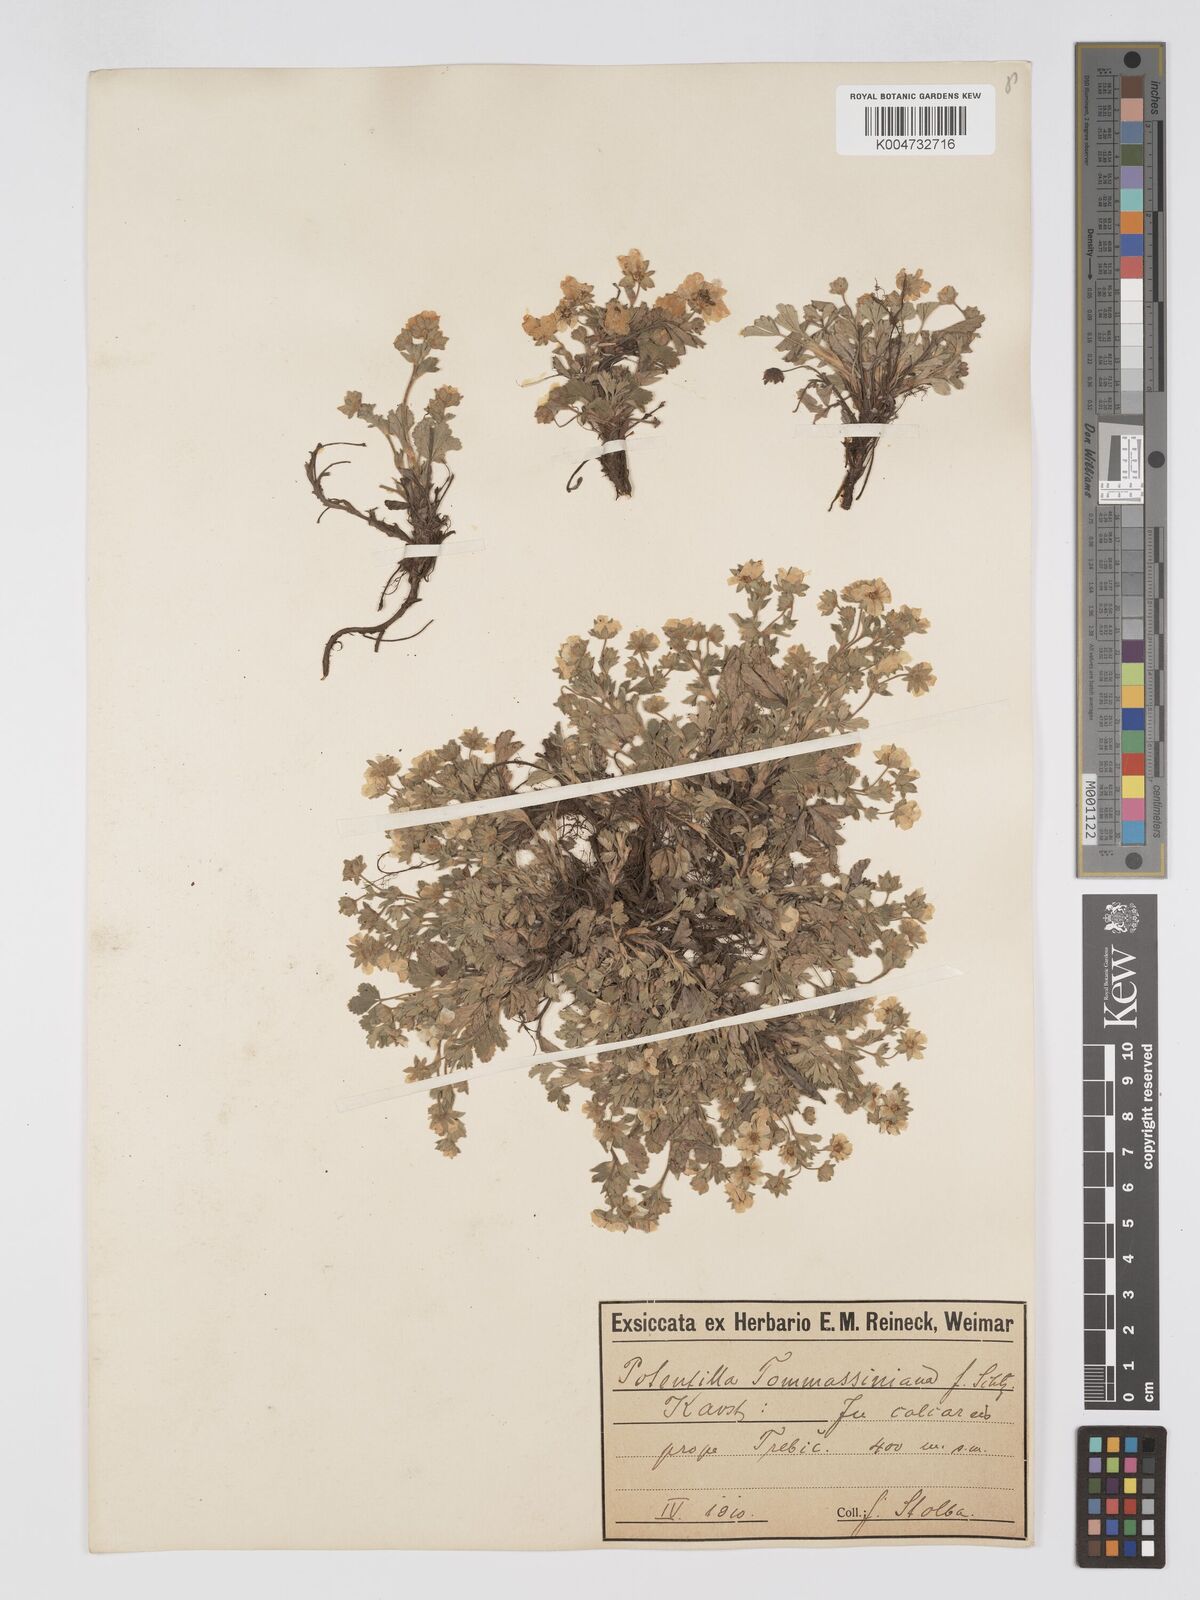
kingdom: Plantae
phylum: Tracheophyta
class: Magnoliopsida
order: Rosales
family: Rosaceae
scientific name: Rosaceae
